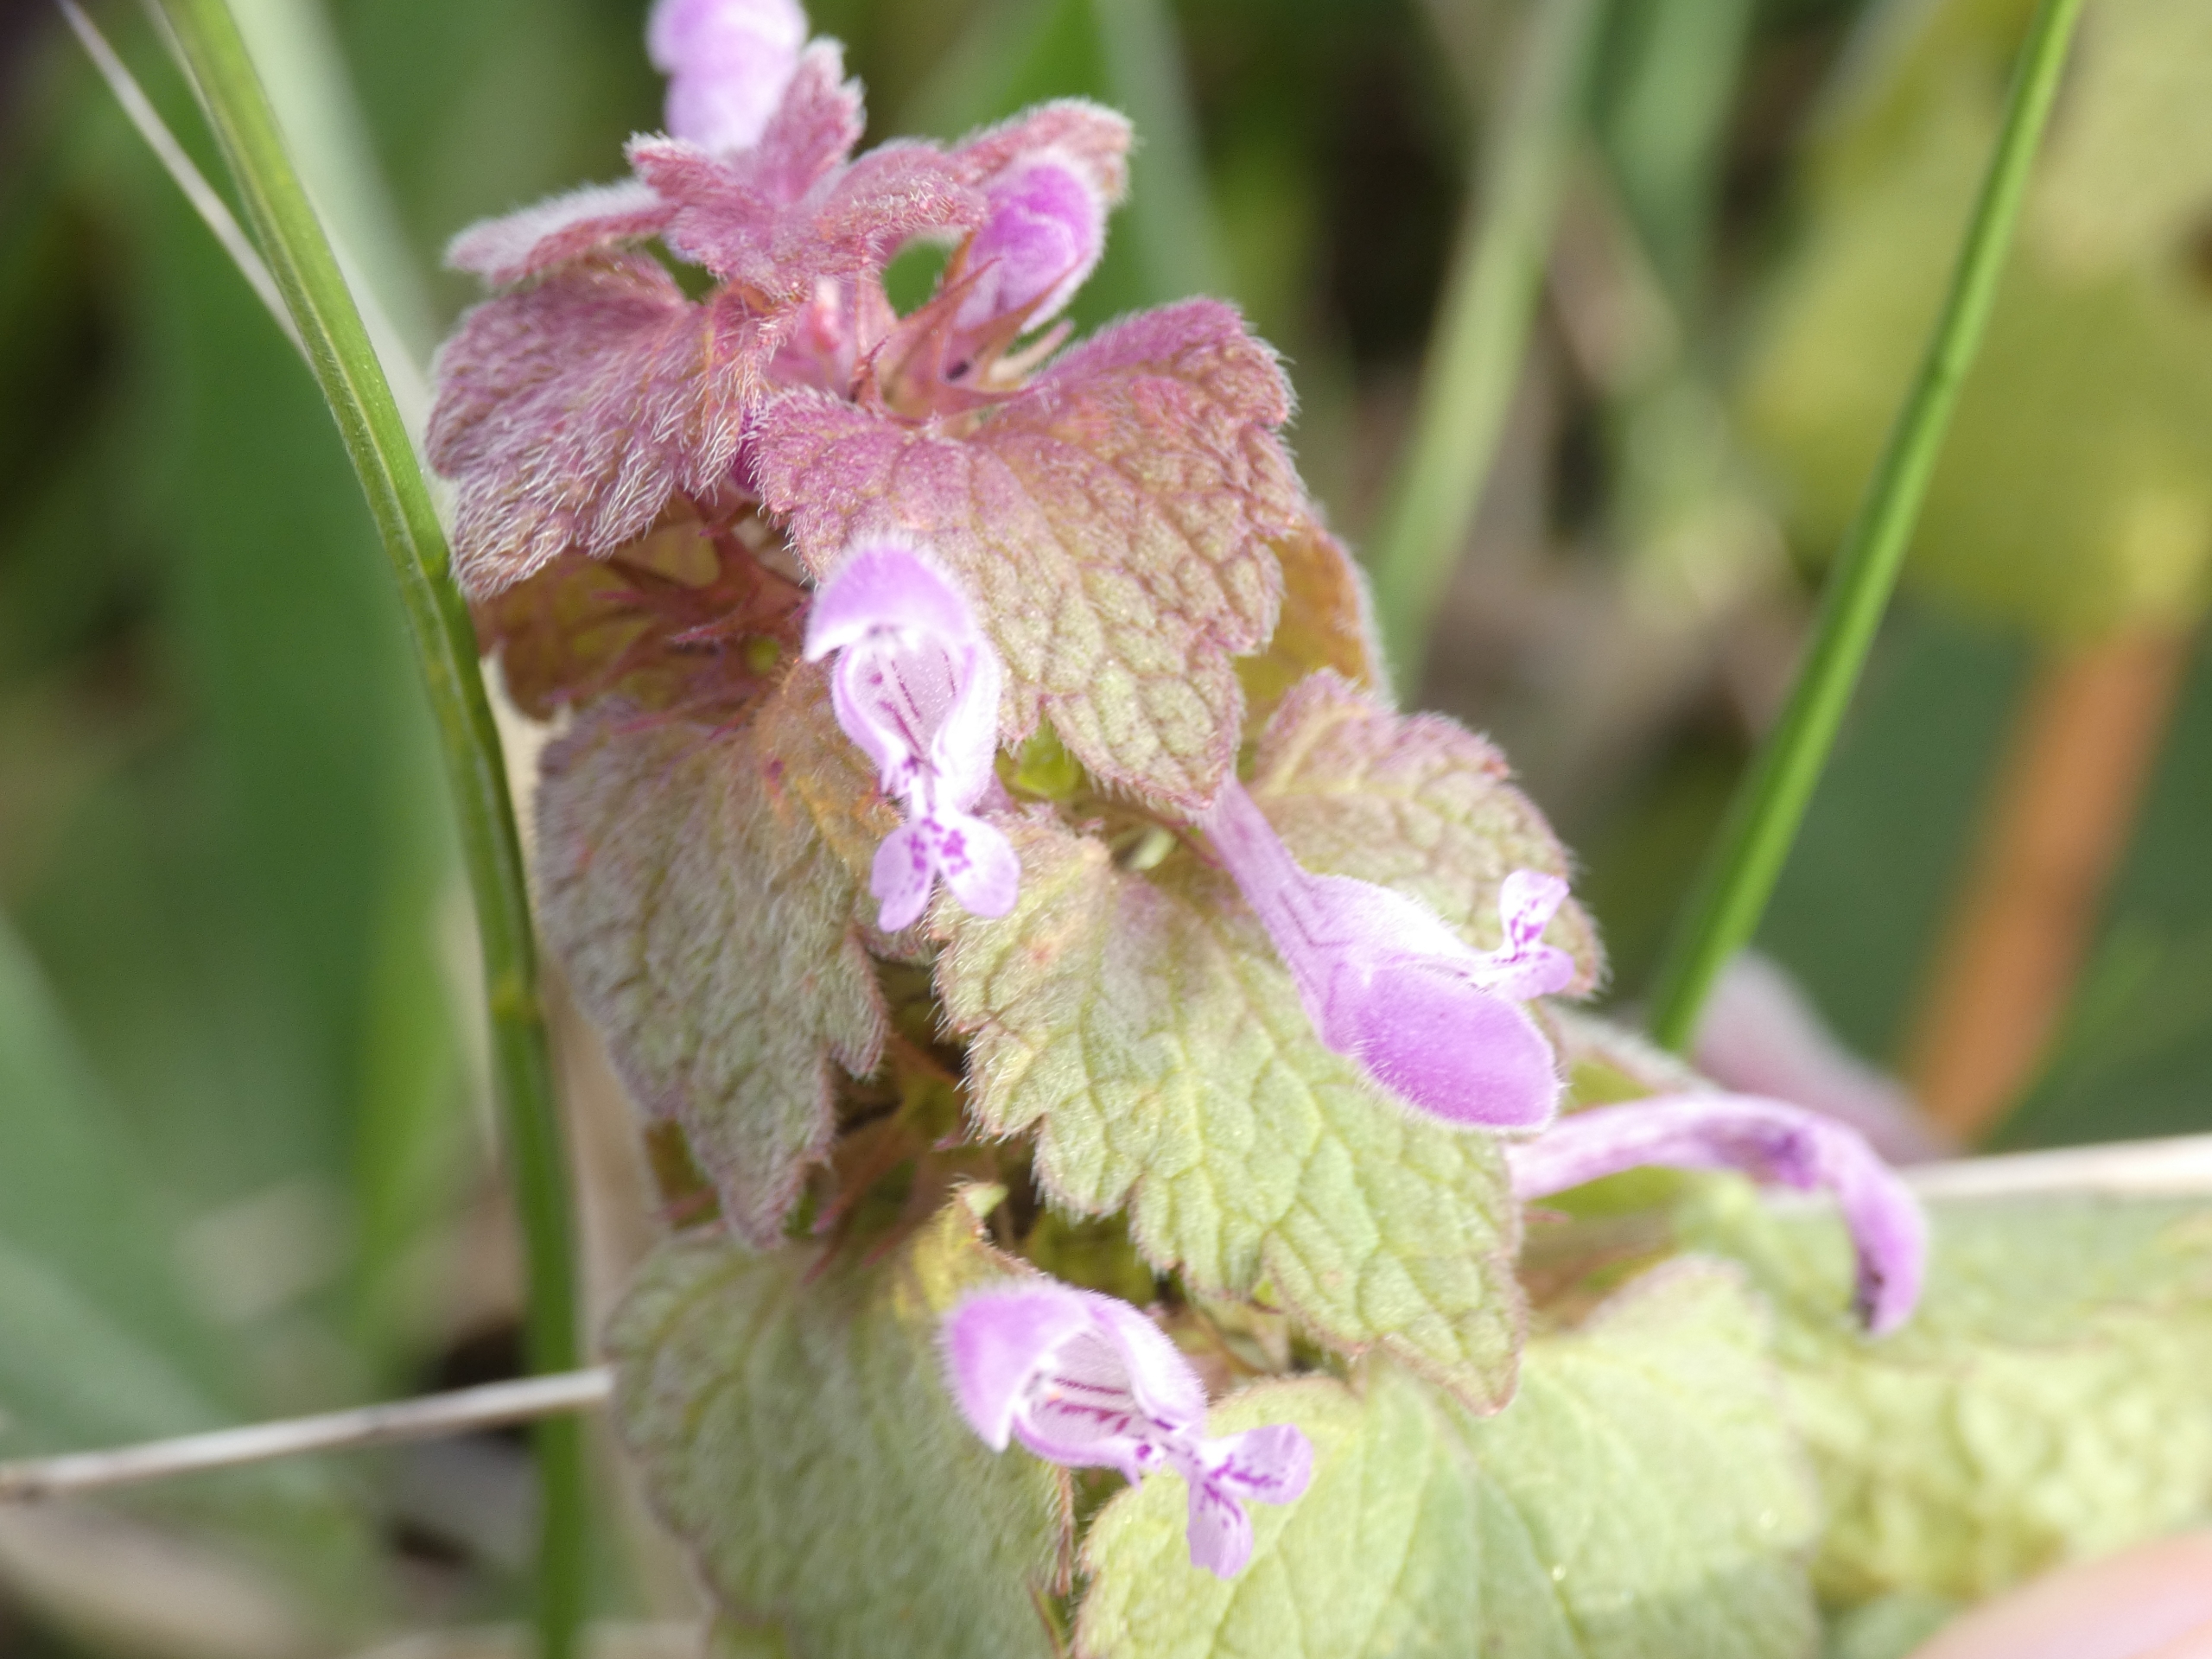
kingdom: Plantae
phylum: Tracheophyta
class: Magnoliopsida
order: Lamiales
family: Lamiaceae
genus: Lamium
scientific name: Lamium purpureum
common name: Rød tvetand
